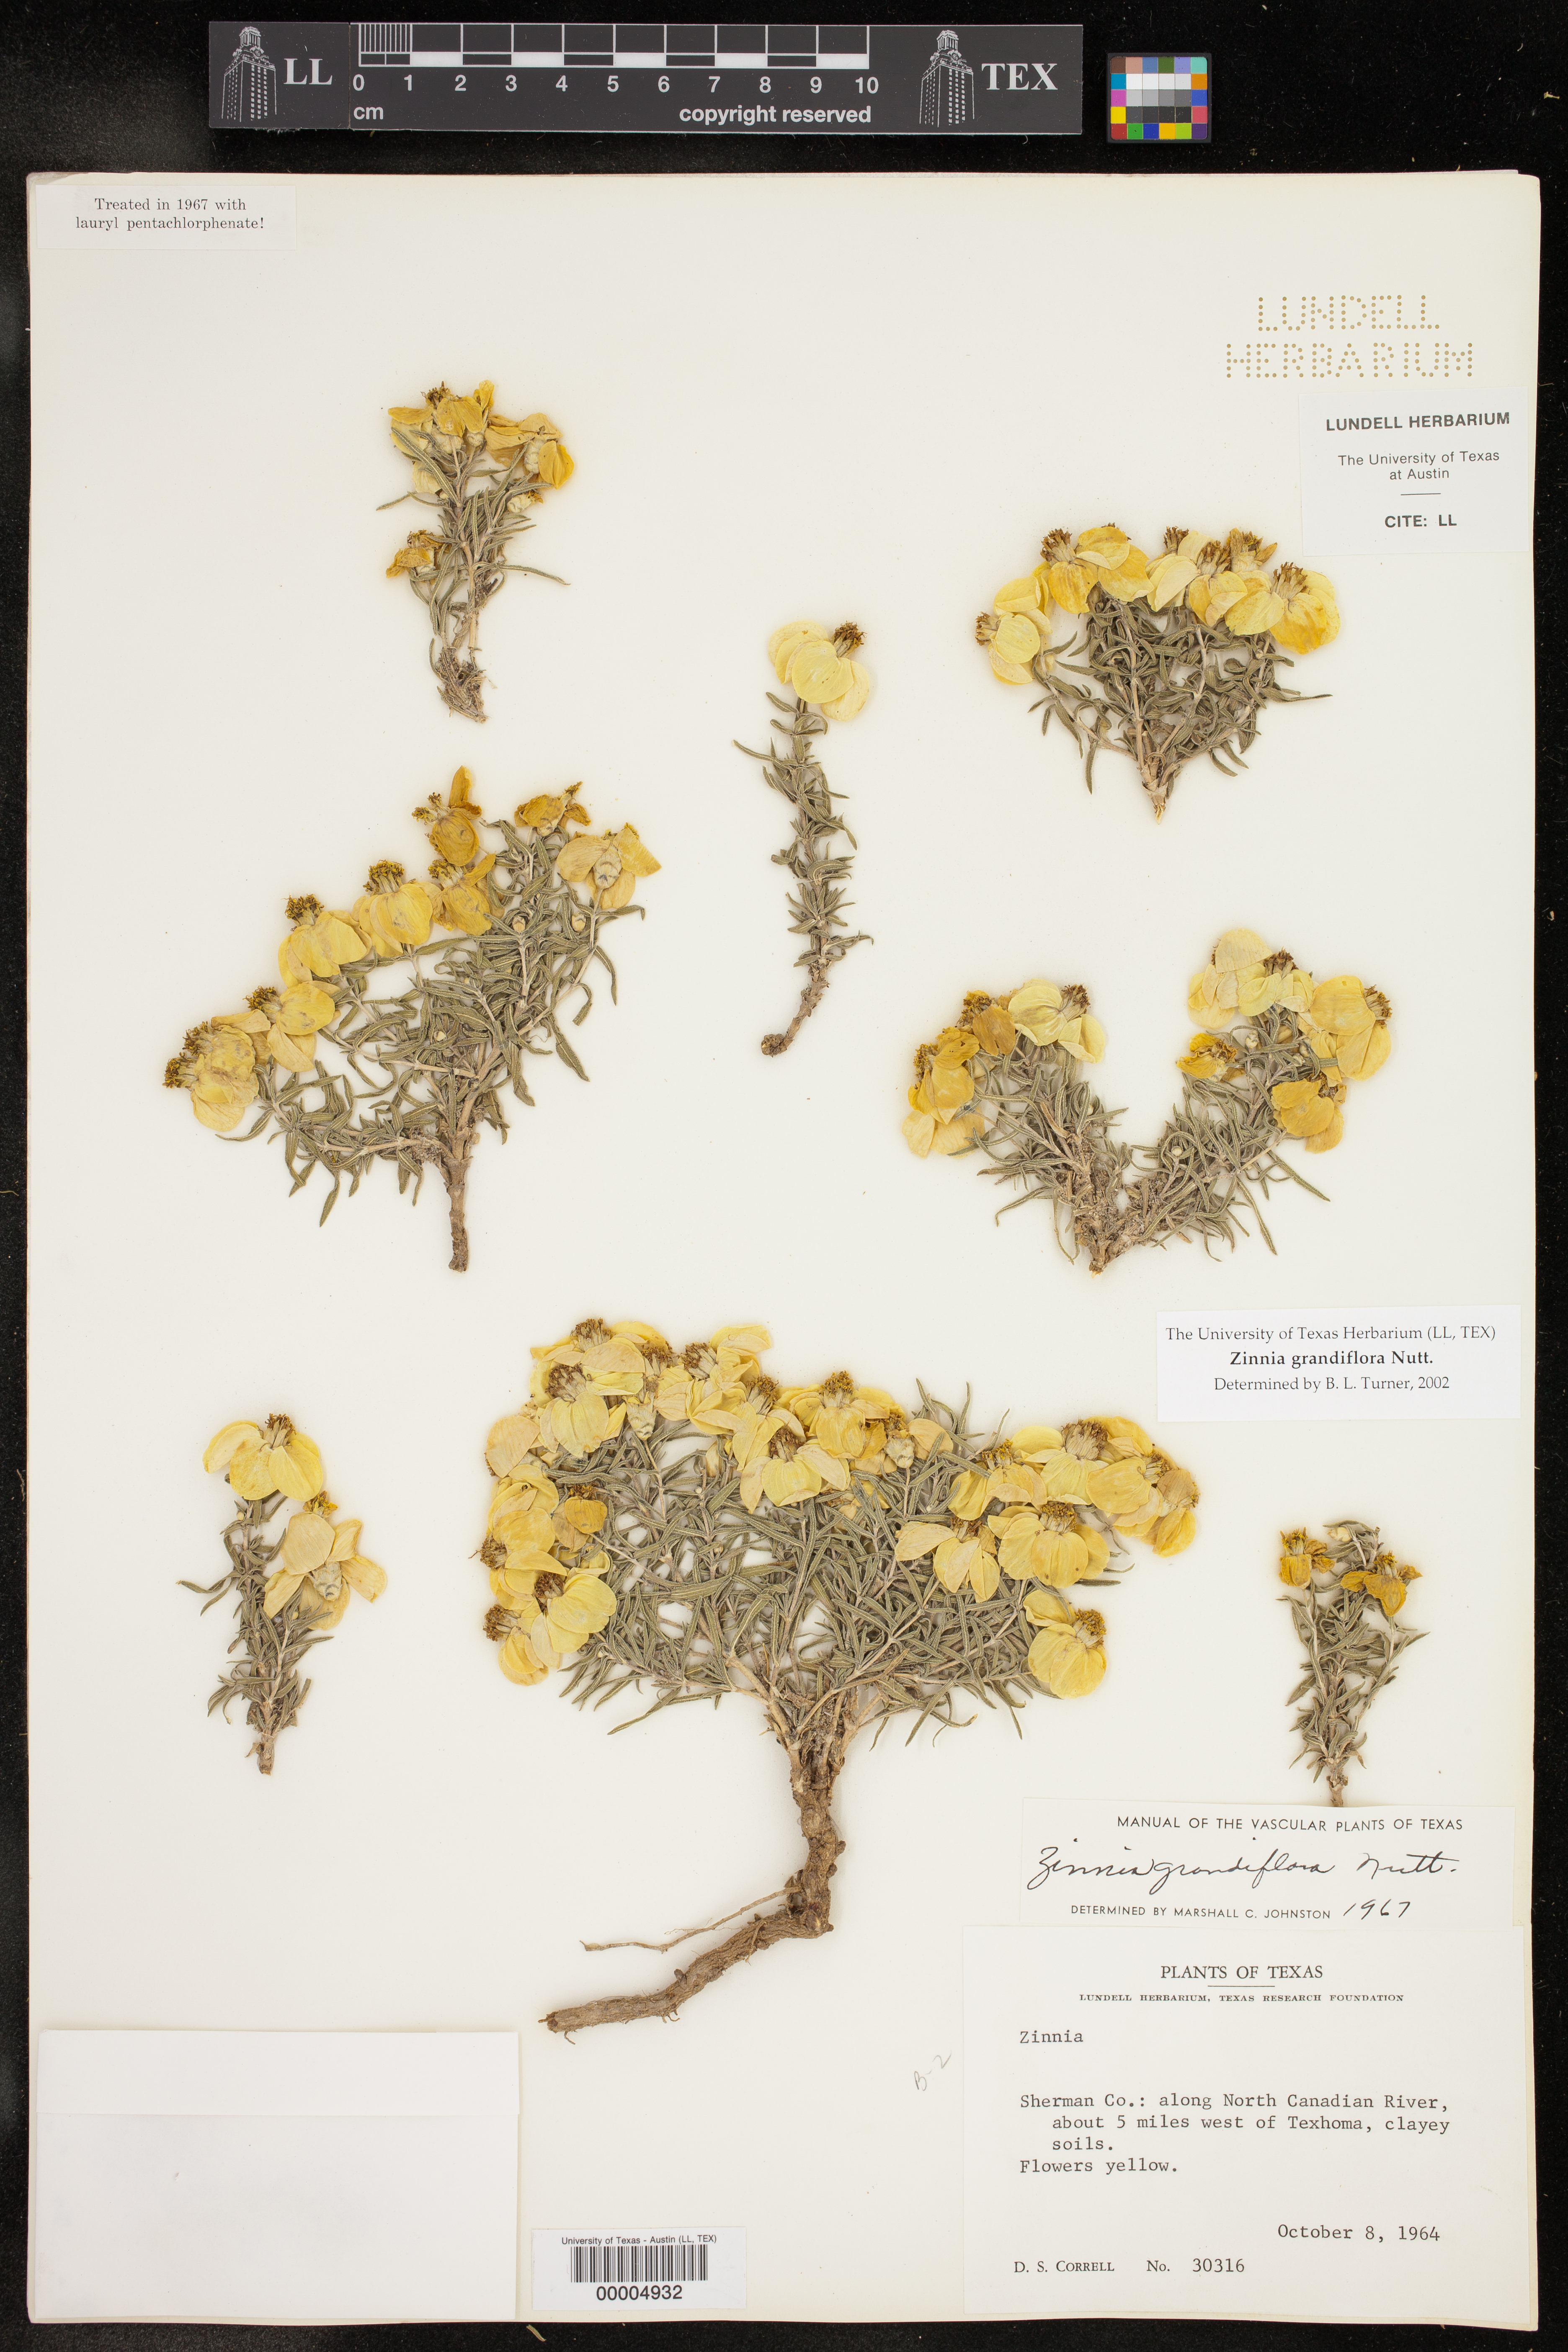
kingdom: Plantae
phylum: Tracheophyta
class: Magnoliopsida
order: Asterales
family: Asteraceae
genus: Zinnia
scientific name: Zinnia grandiflora
